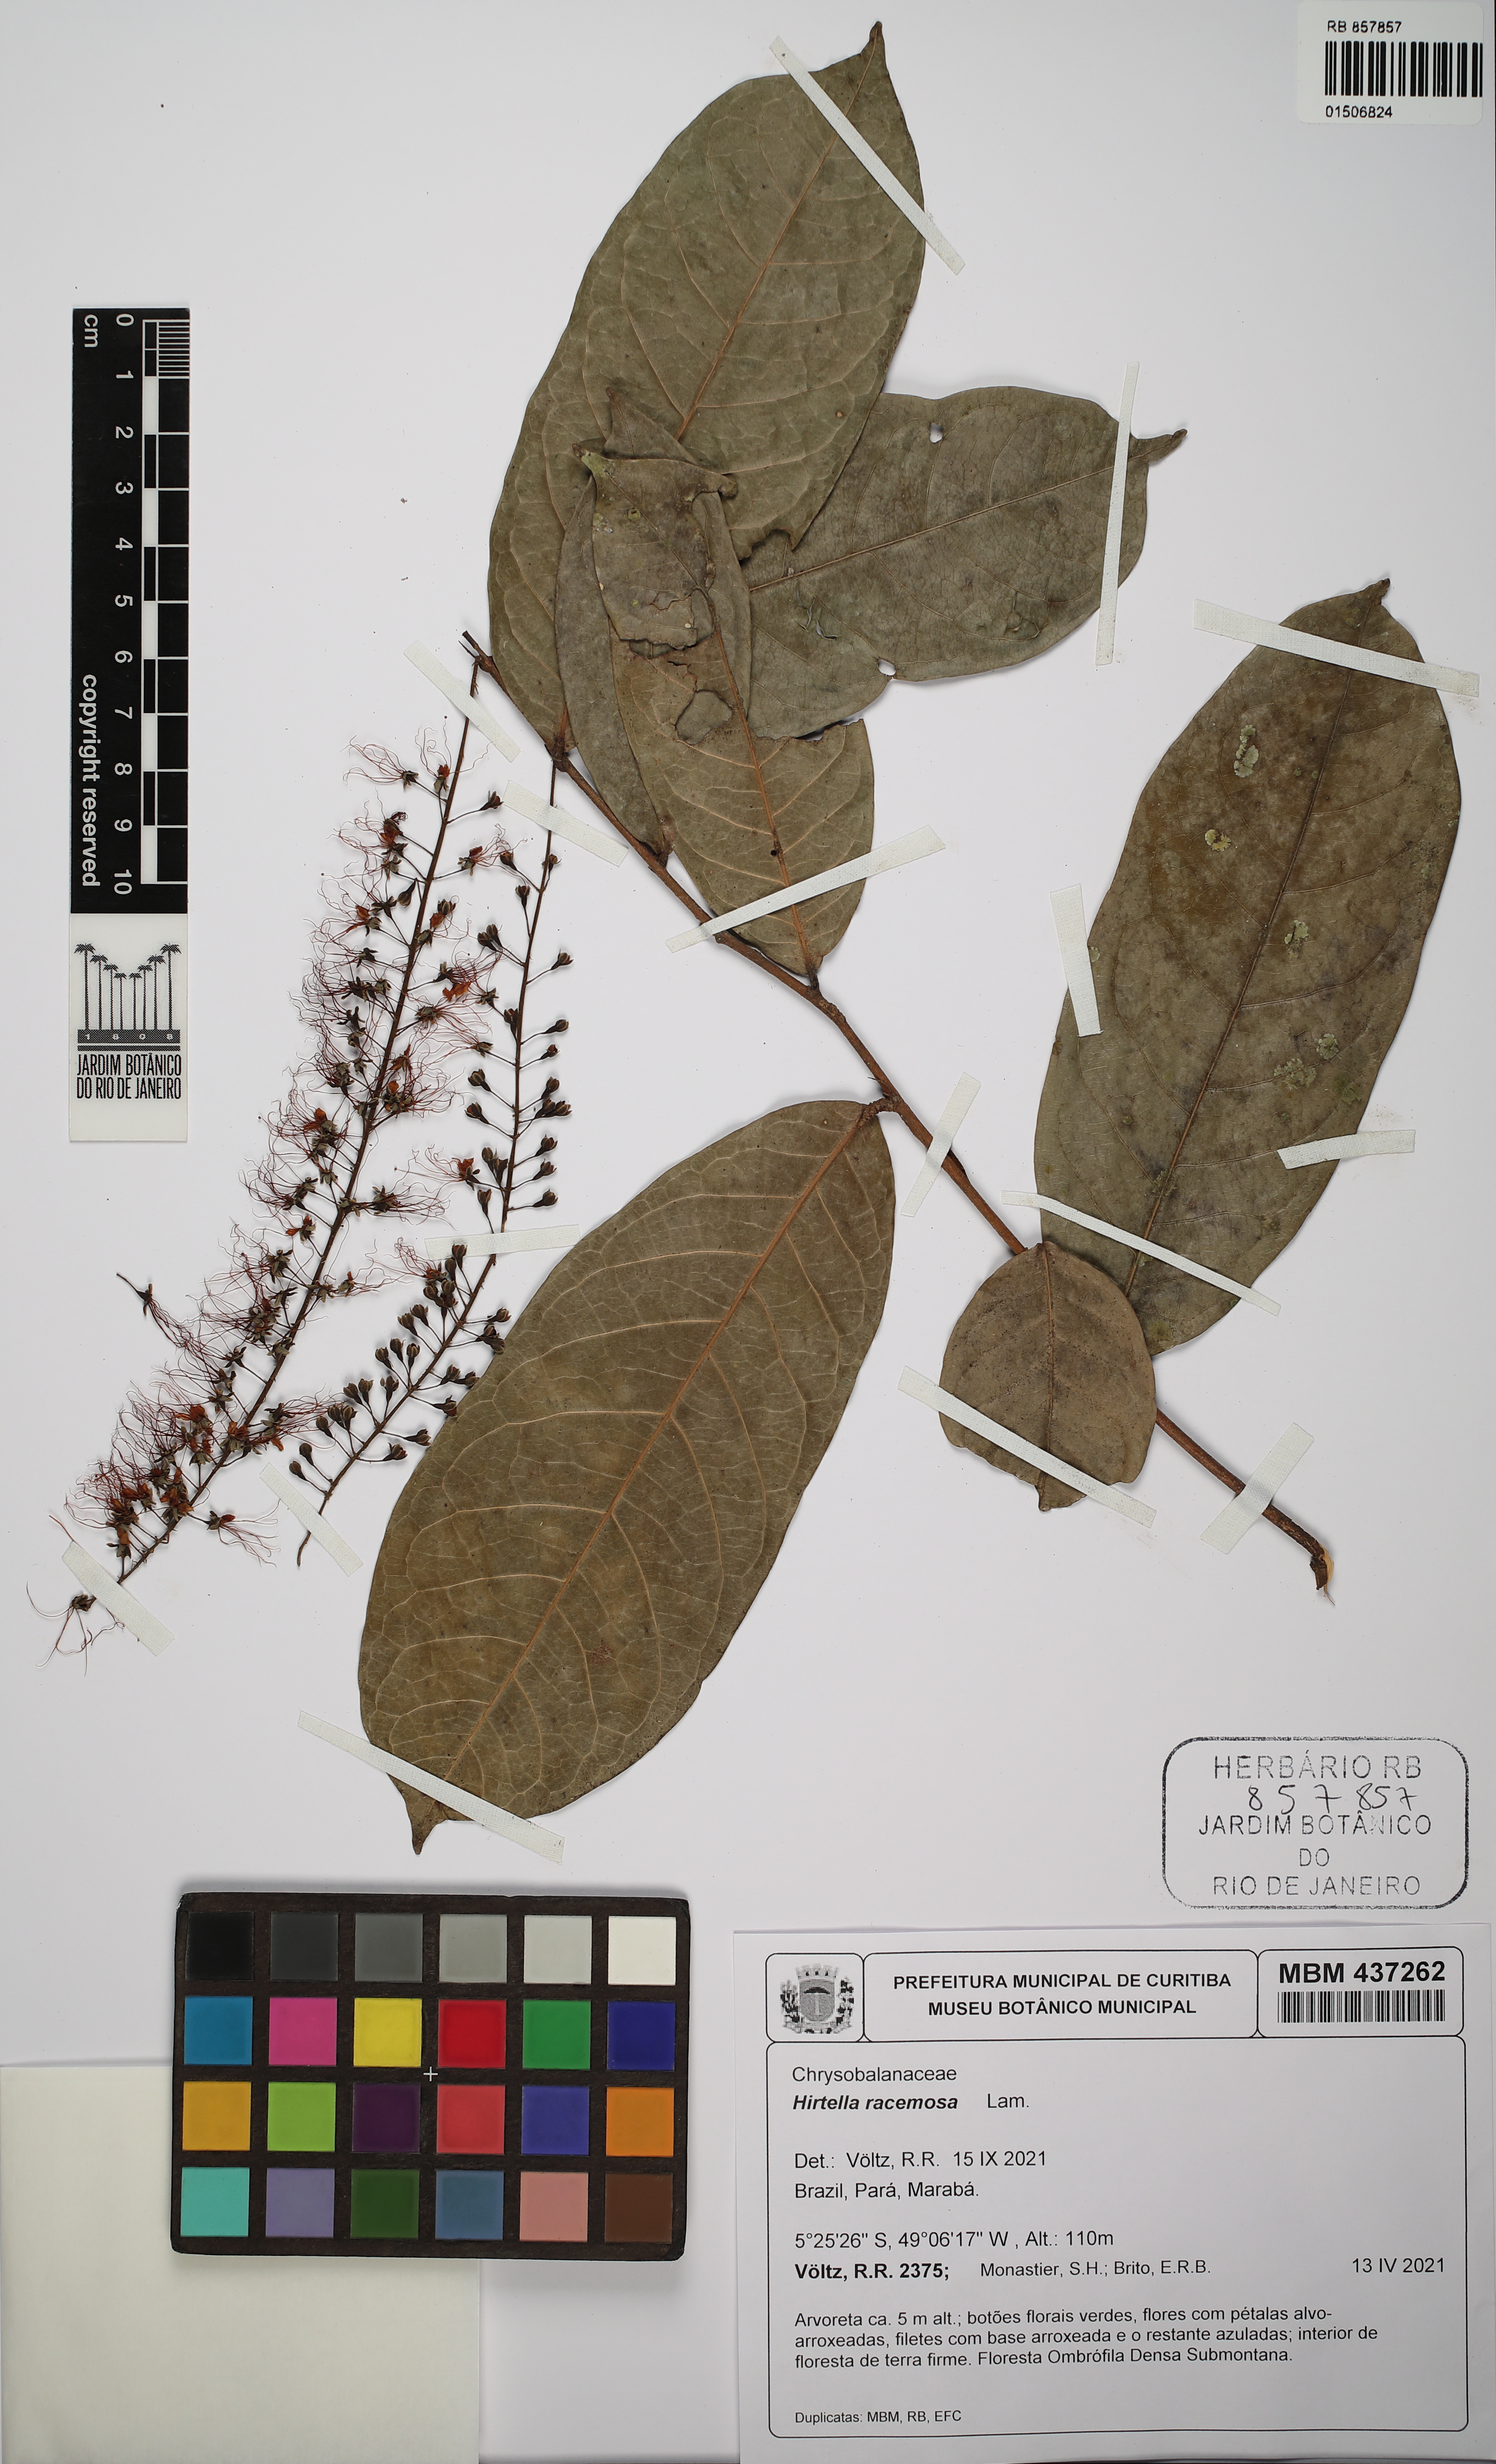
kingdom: Plantae
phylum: Tracheophyta
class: Magnoliopsida
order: Malpighiales
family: Chrysobalanaceae
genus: Hirtella
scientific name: Hirtella racemosa
